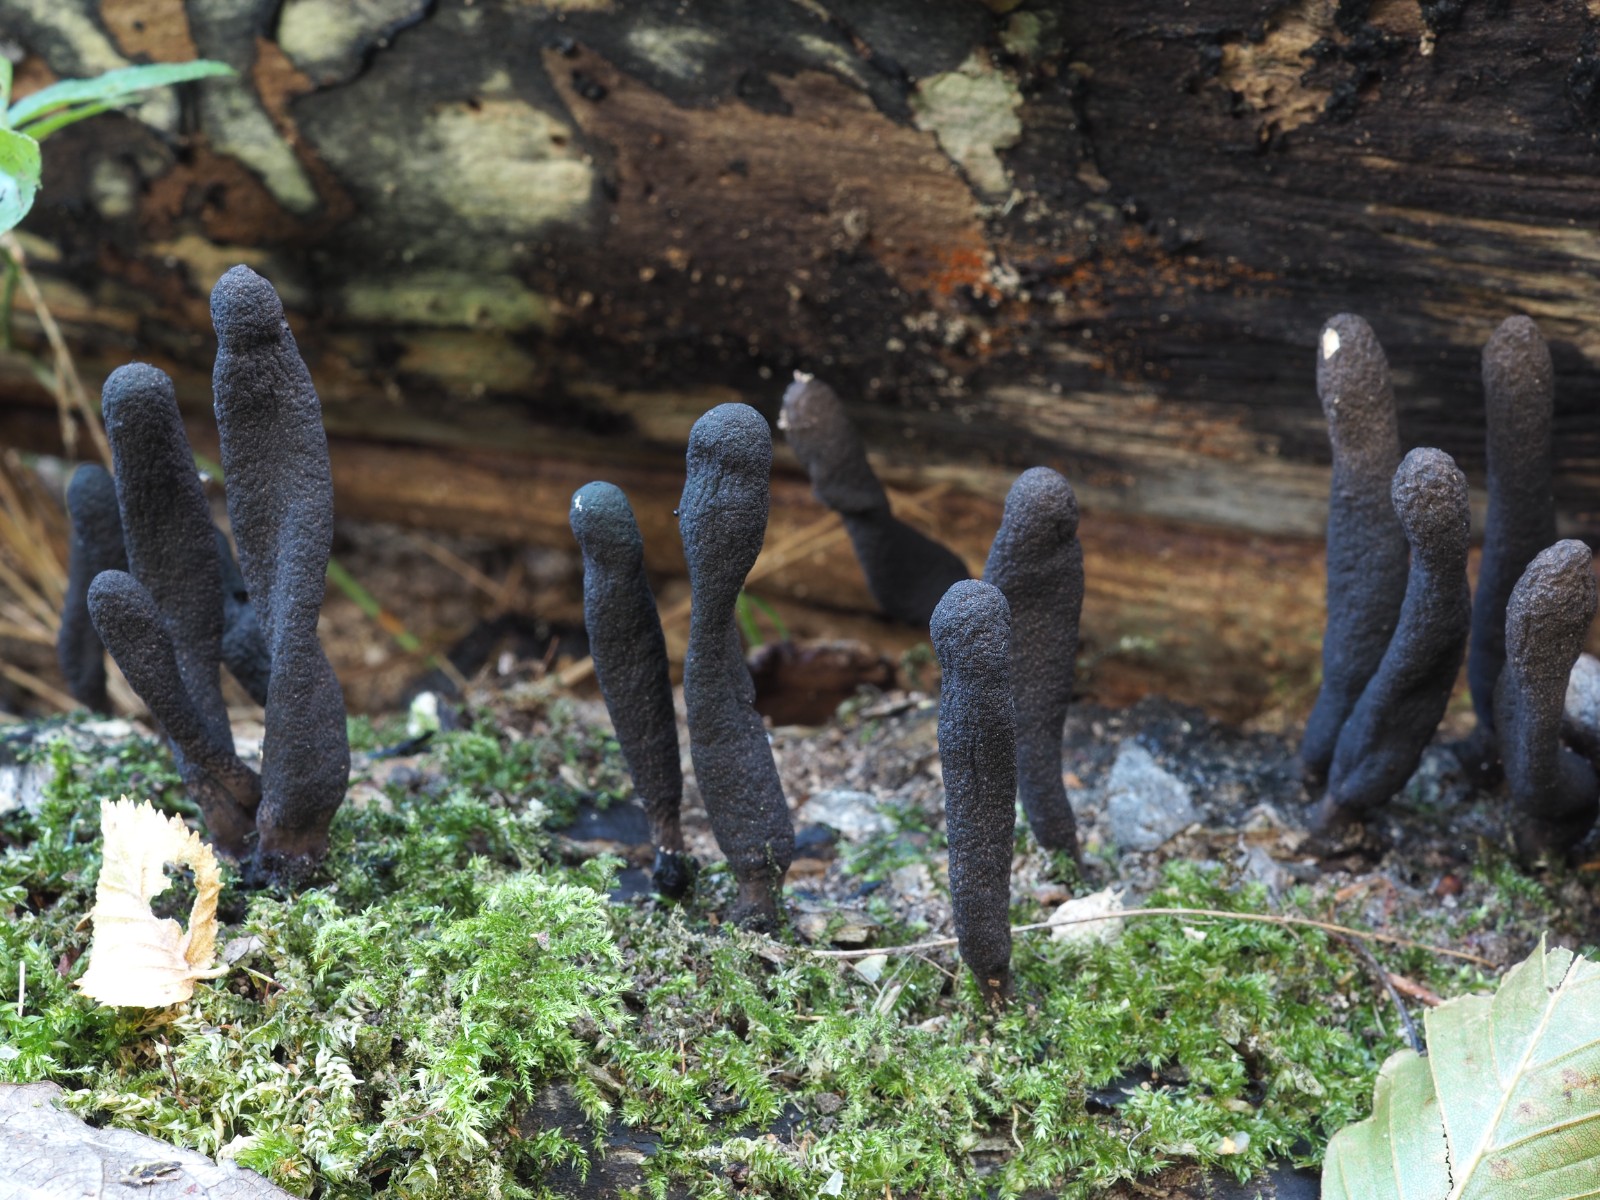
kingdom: Fungi
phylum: Ascomycota
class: Sordariomycetes
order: Xylariales
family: Xylariaceae
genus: Xylaria
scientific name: Xylaria longipes
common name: slank stødsvamp
